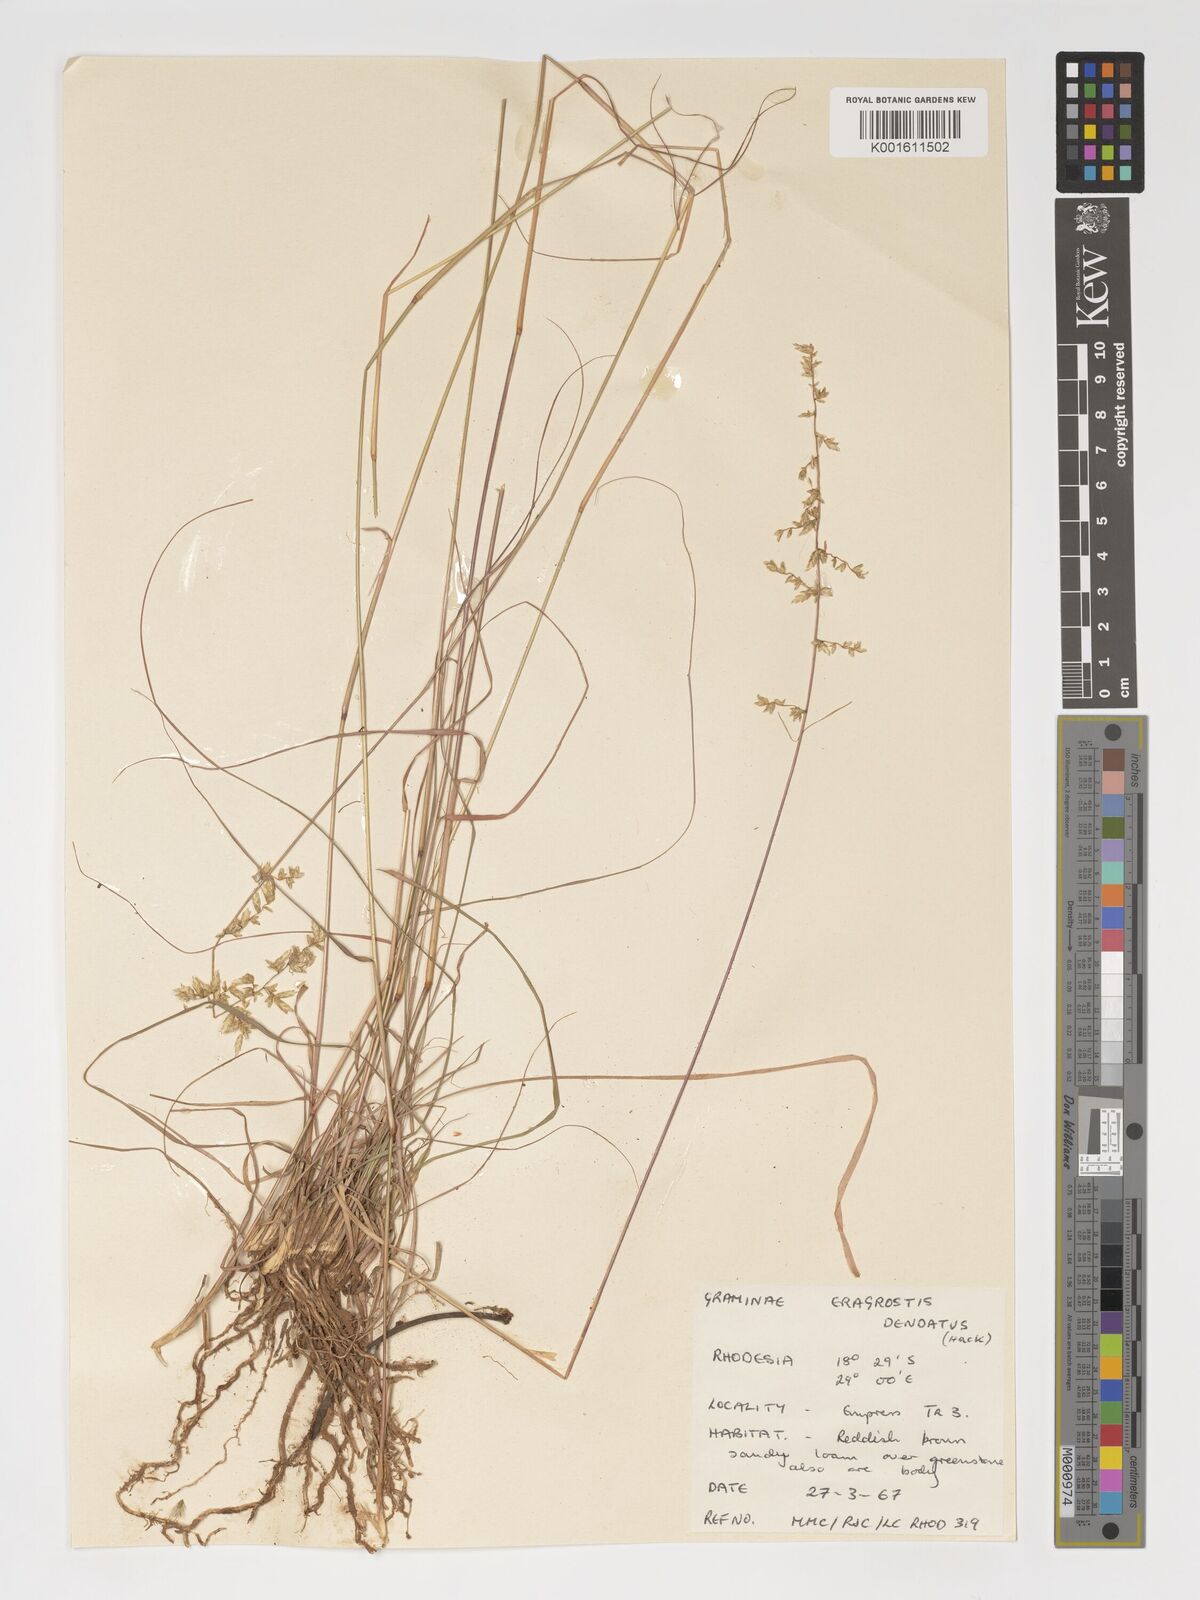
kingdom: Plantae
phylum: Tracheophyta
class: Liliopsida
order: Poales
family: Poaceae
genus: Eragrostis
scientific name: Eragrostis
